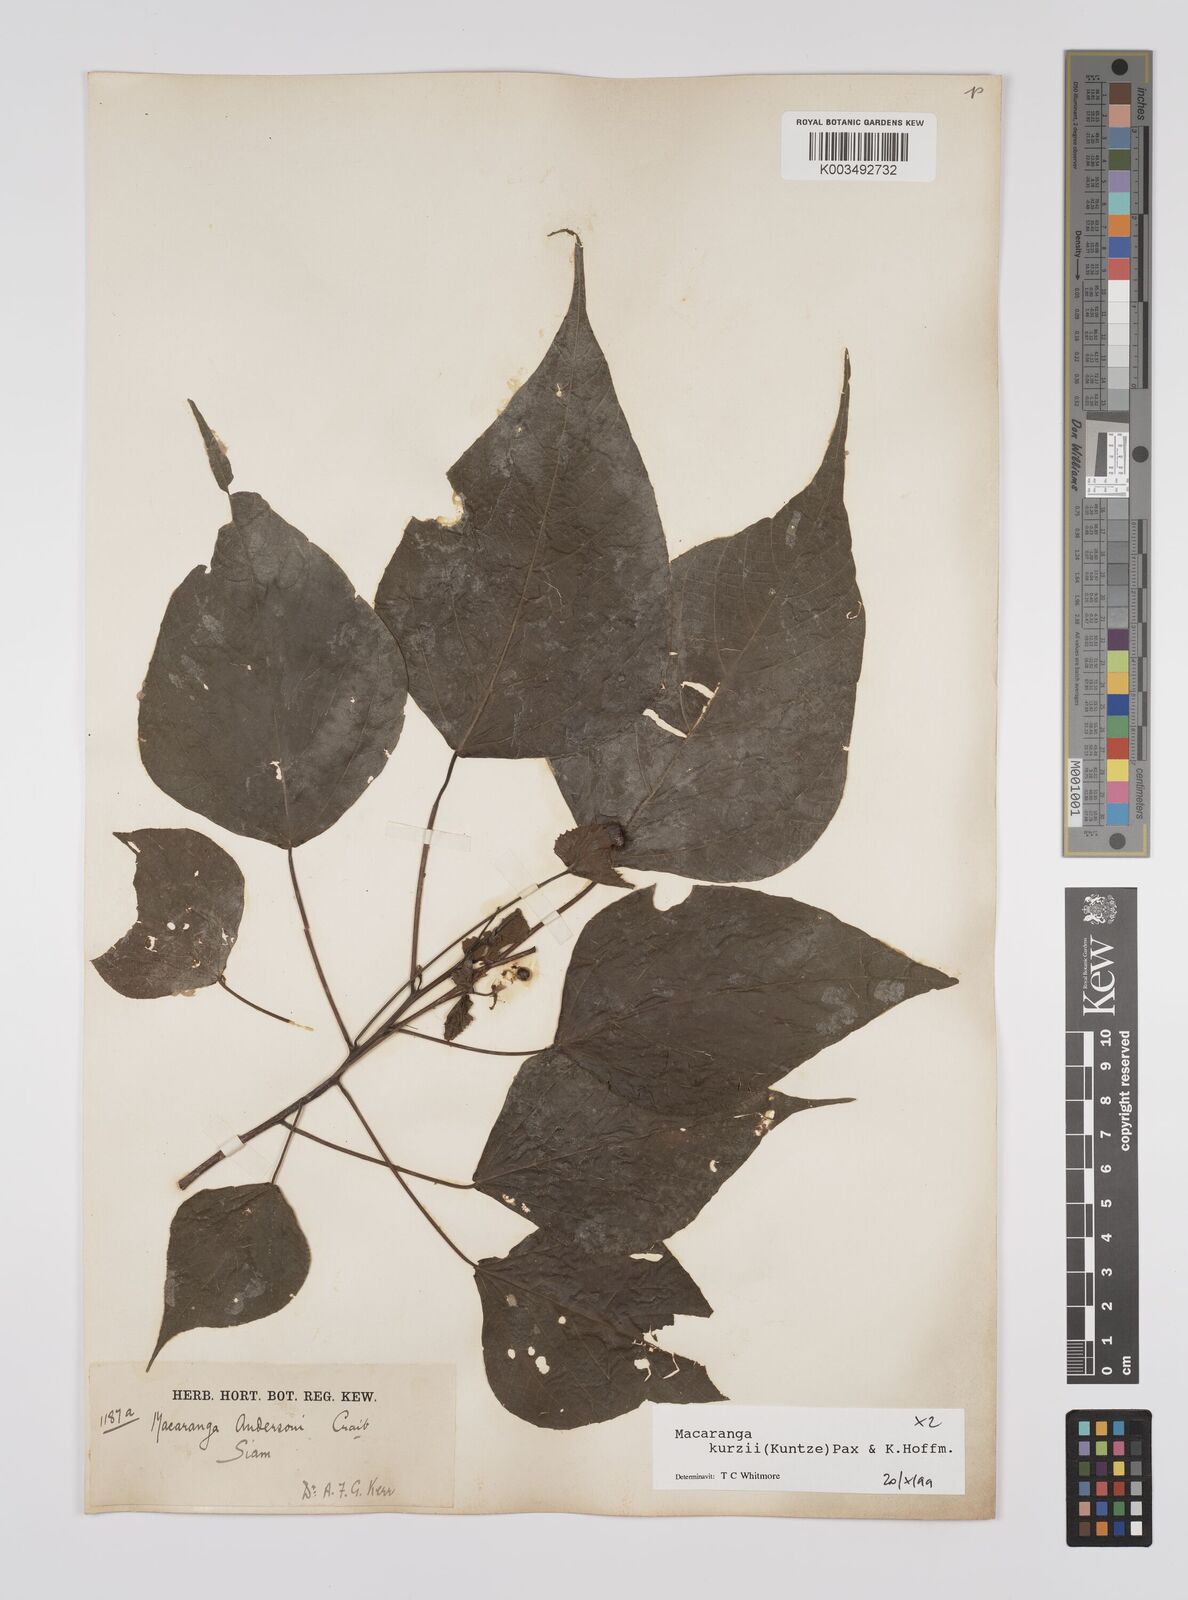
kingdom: Plantae
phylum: Tracheophyta
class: Magnoliopsida
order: Malpighiales
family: Euphorbiaceae
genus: Macaranga
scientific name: Macaranga kurzii
